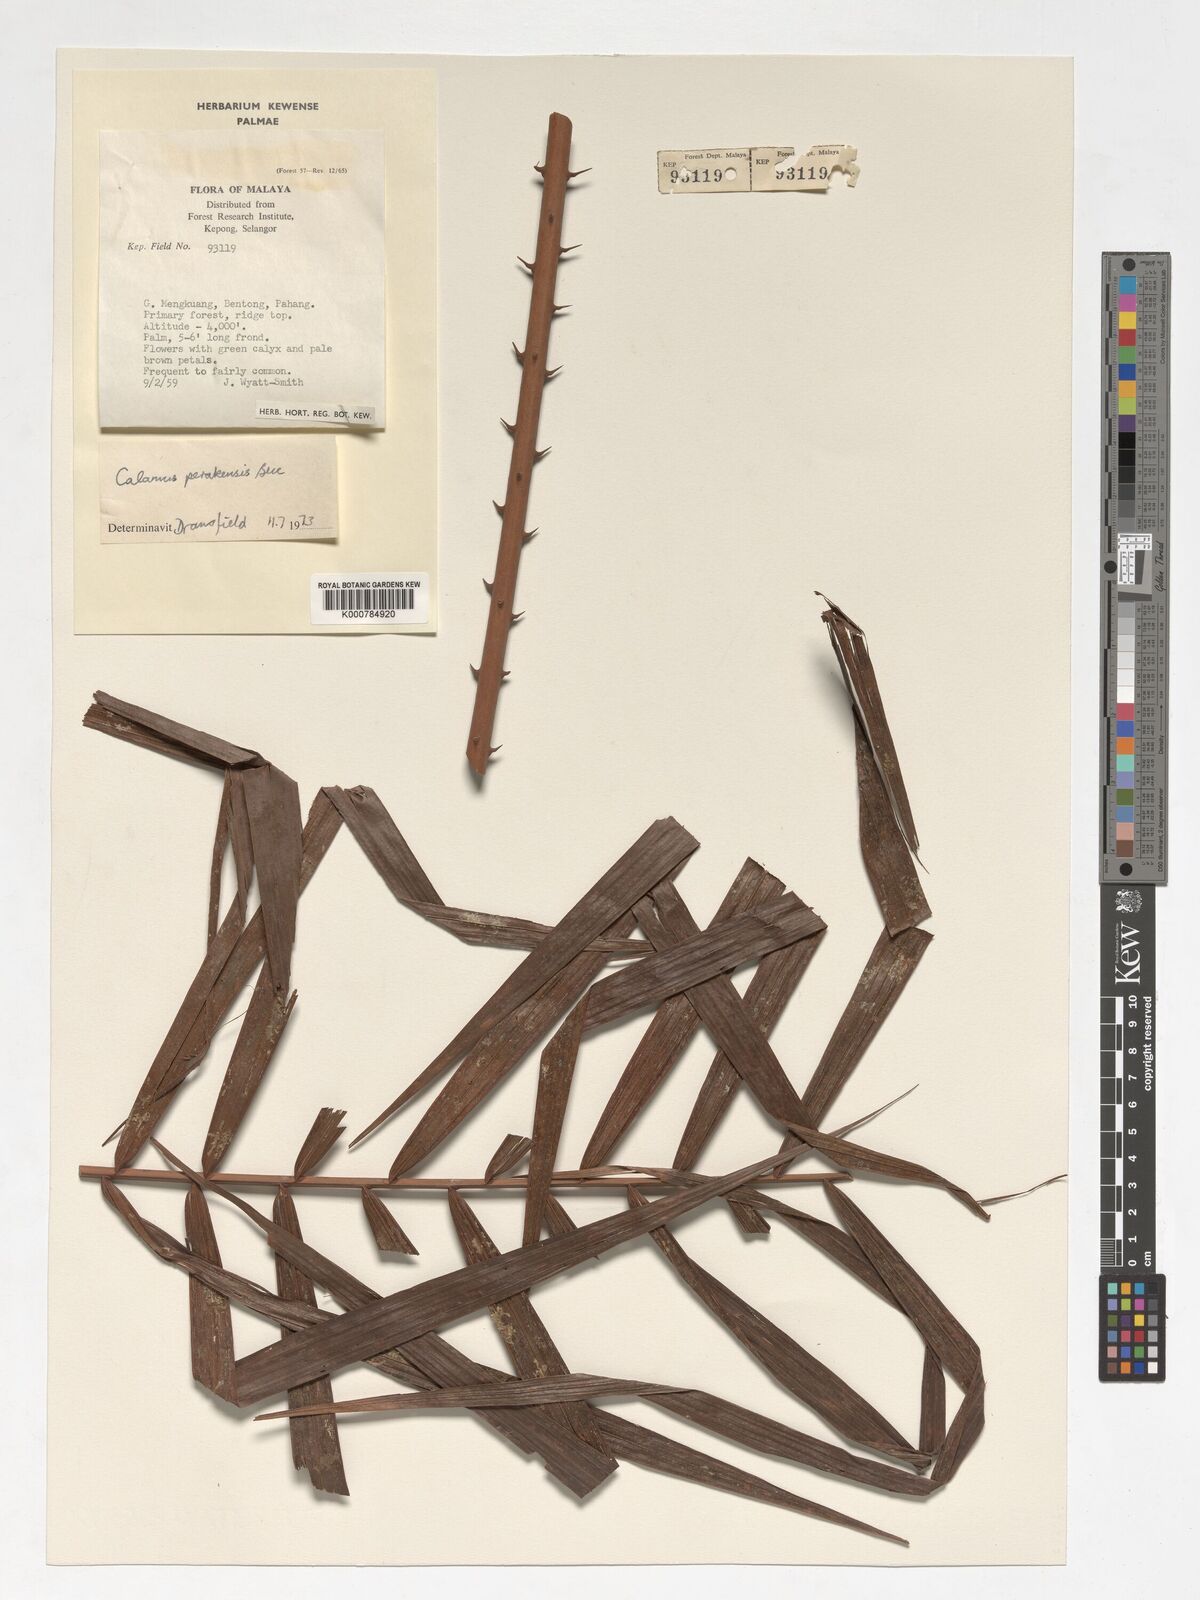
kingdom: Plantae
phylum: Tracheophyta
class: Liliopsida
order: Arecales
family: Arecaceae
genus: Calamus
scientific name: Calamus perakensis
